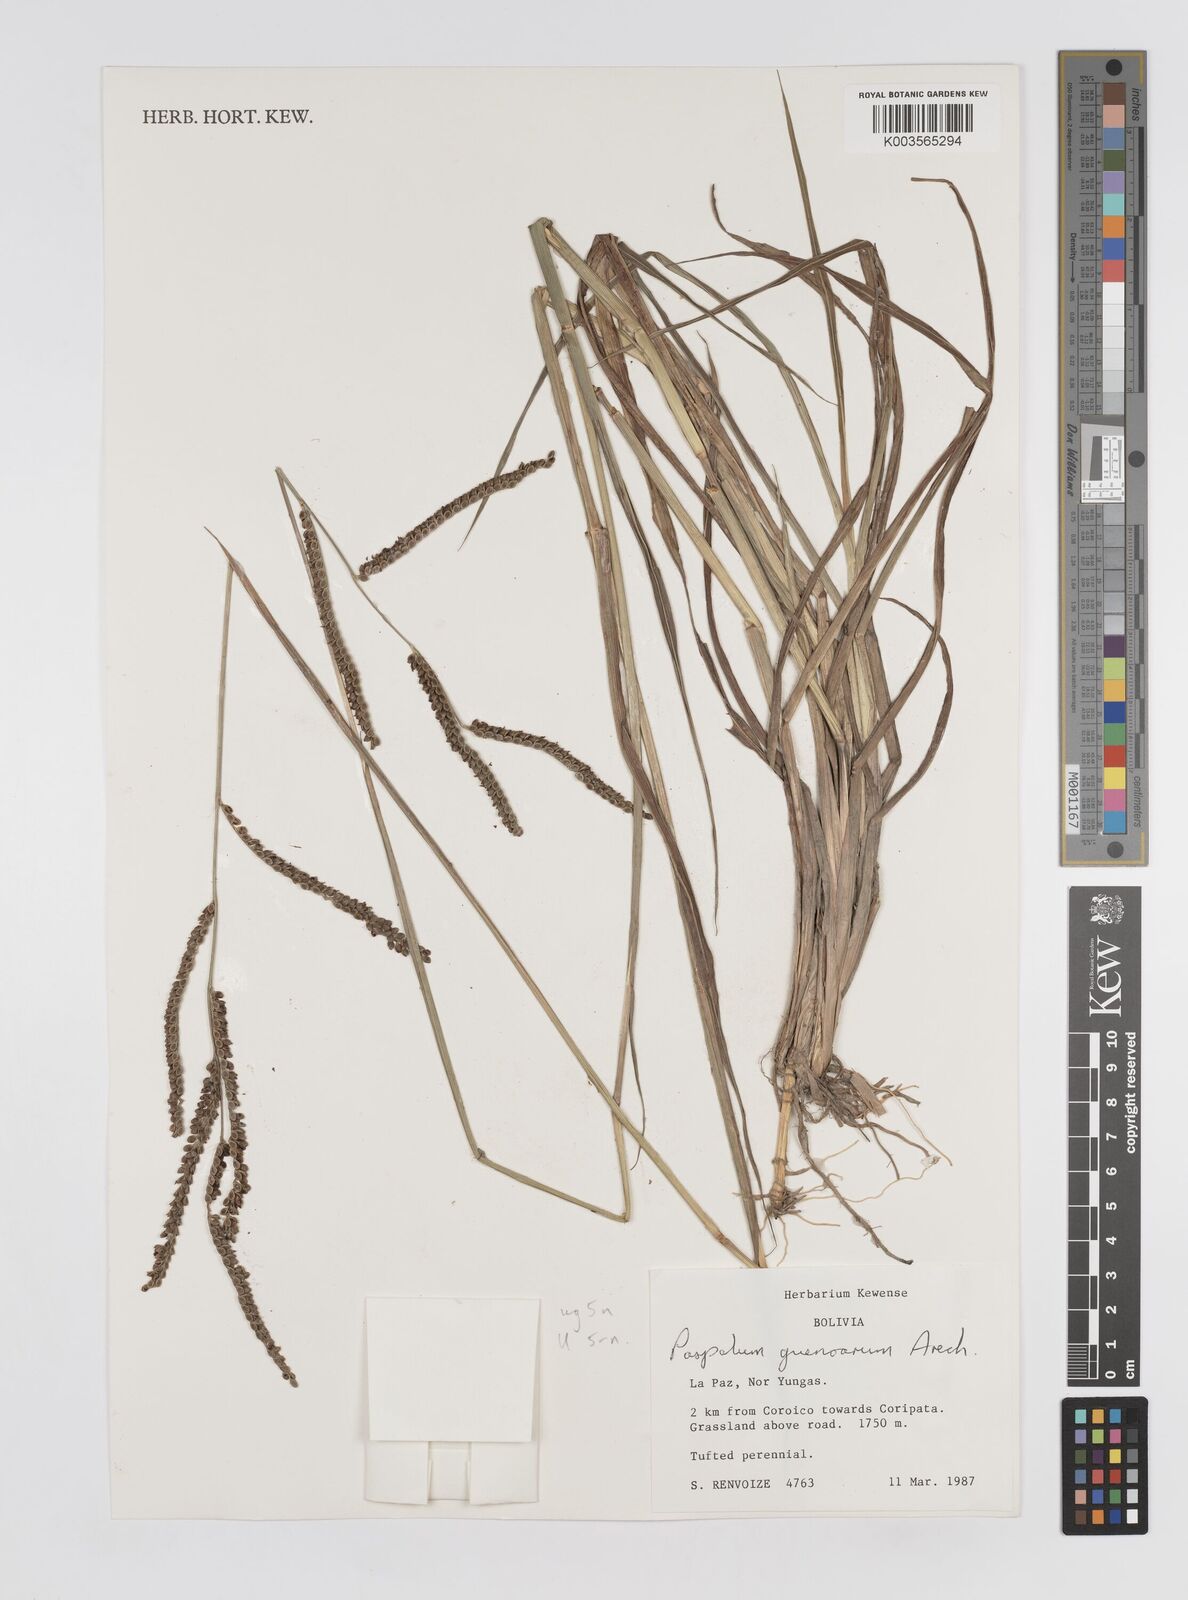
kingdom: Plantae
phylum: Tracheophyta
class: Liliopsida
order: Poales
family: Poaceae
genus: Paspalum
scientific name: Paspalum guenoarum
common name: Wintergreen paspalum
